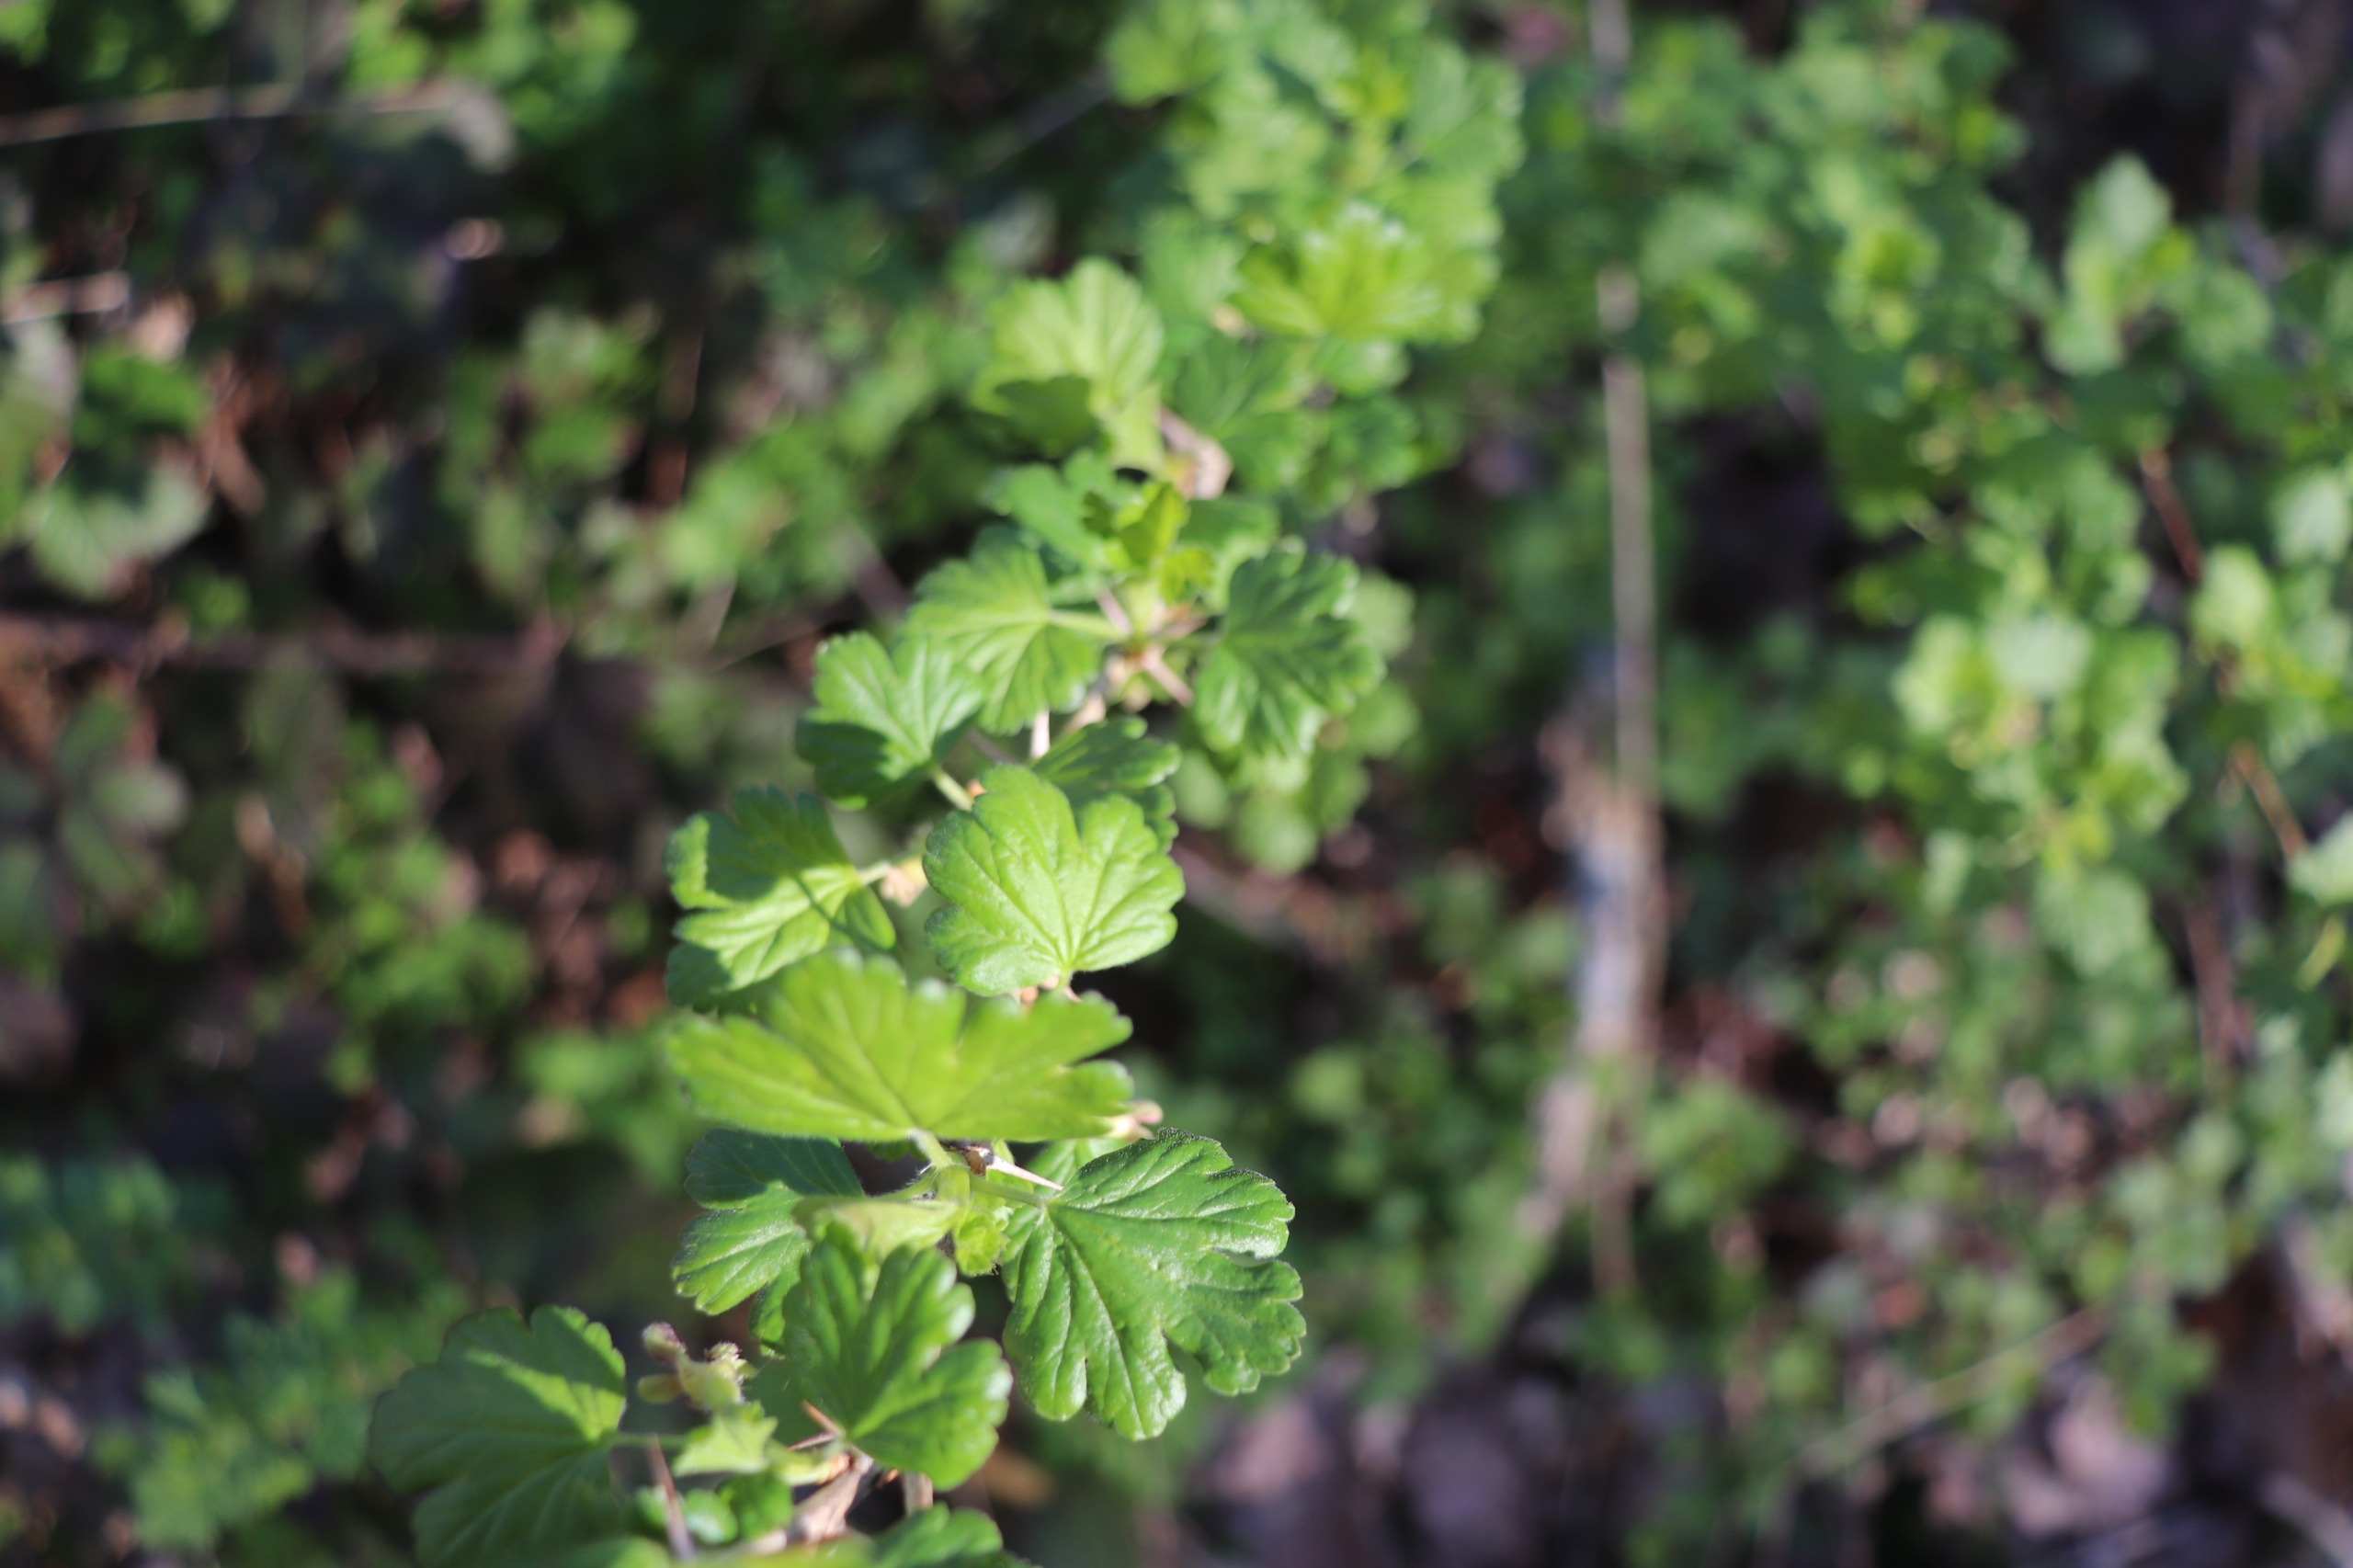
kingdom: Plantae
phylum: Tracheophyta
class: Magnoliopsida
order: Saxifragales
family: Grossulariaceae
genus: Ribes
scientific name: Ribes uva-crispa
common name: Stikkelsbær
